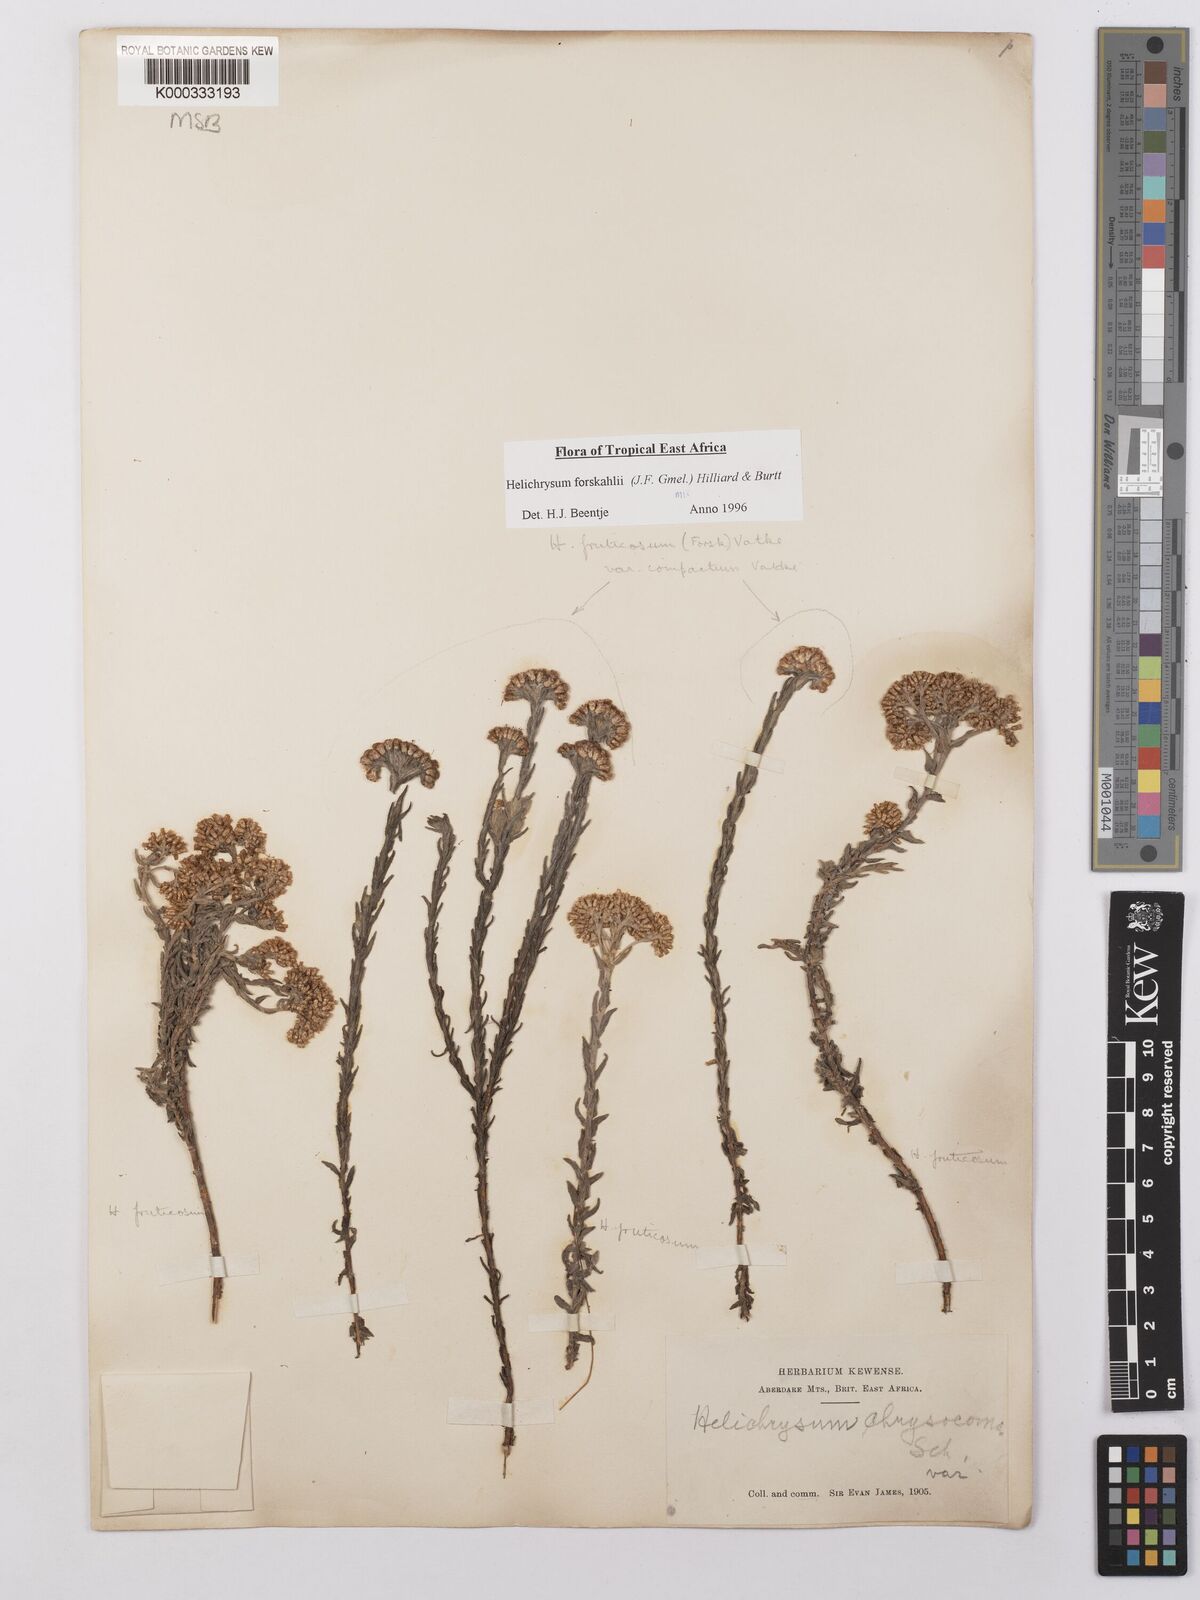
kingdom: Plantae
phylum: Tracheophyta
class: Magnoliopsida
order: Asterales
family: Asteraceae
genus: Helichrysum
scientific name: Helichrysum forskahlii
